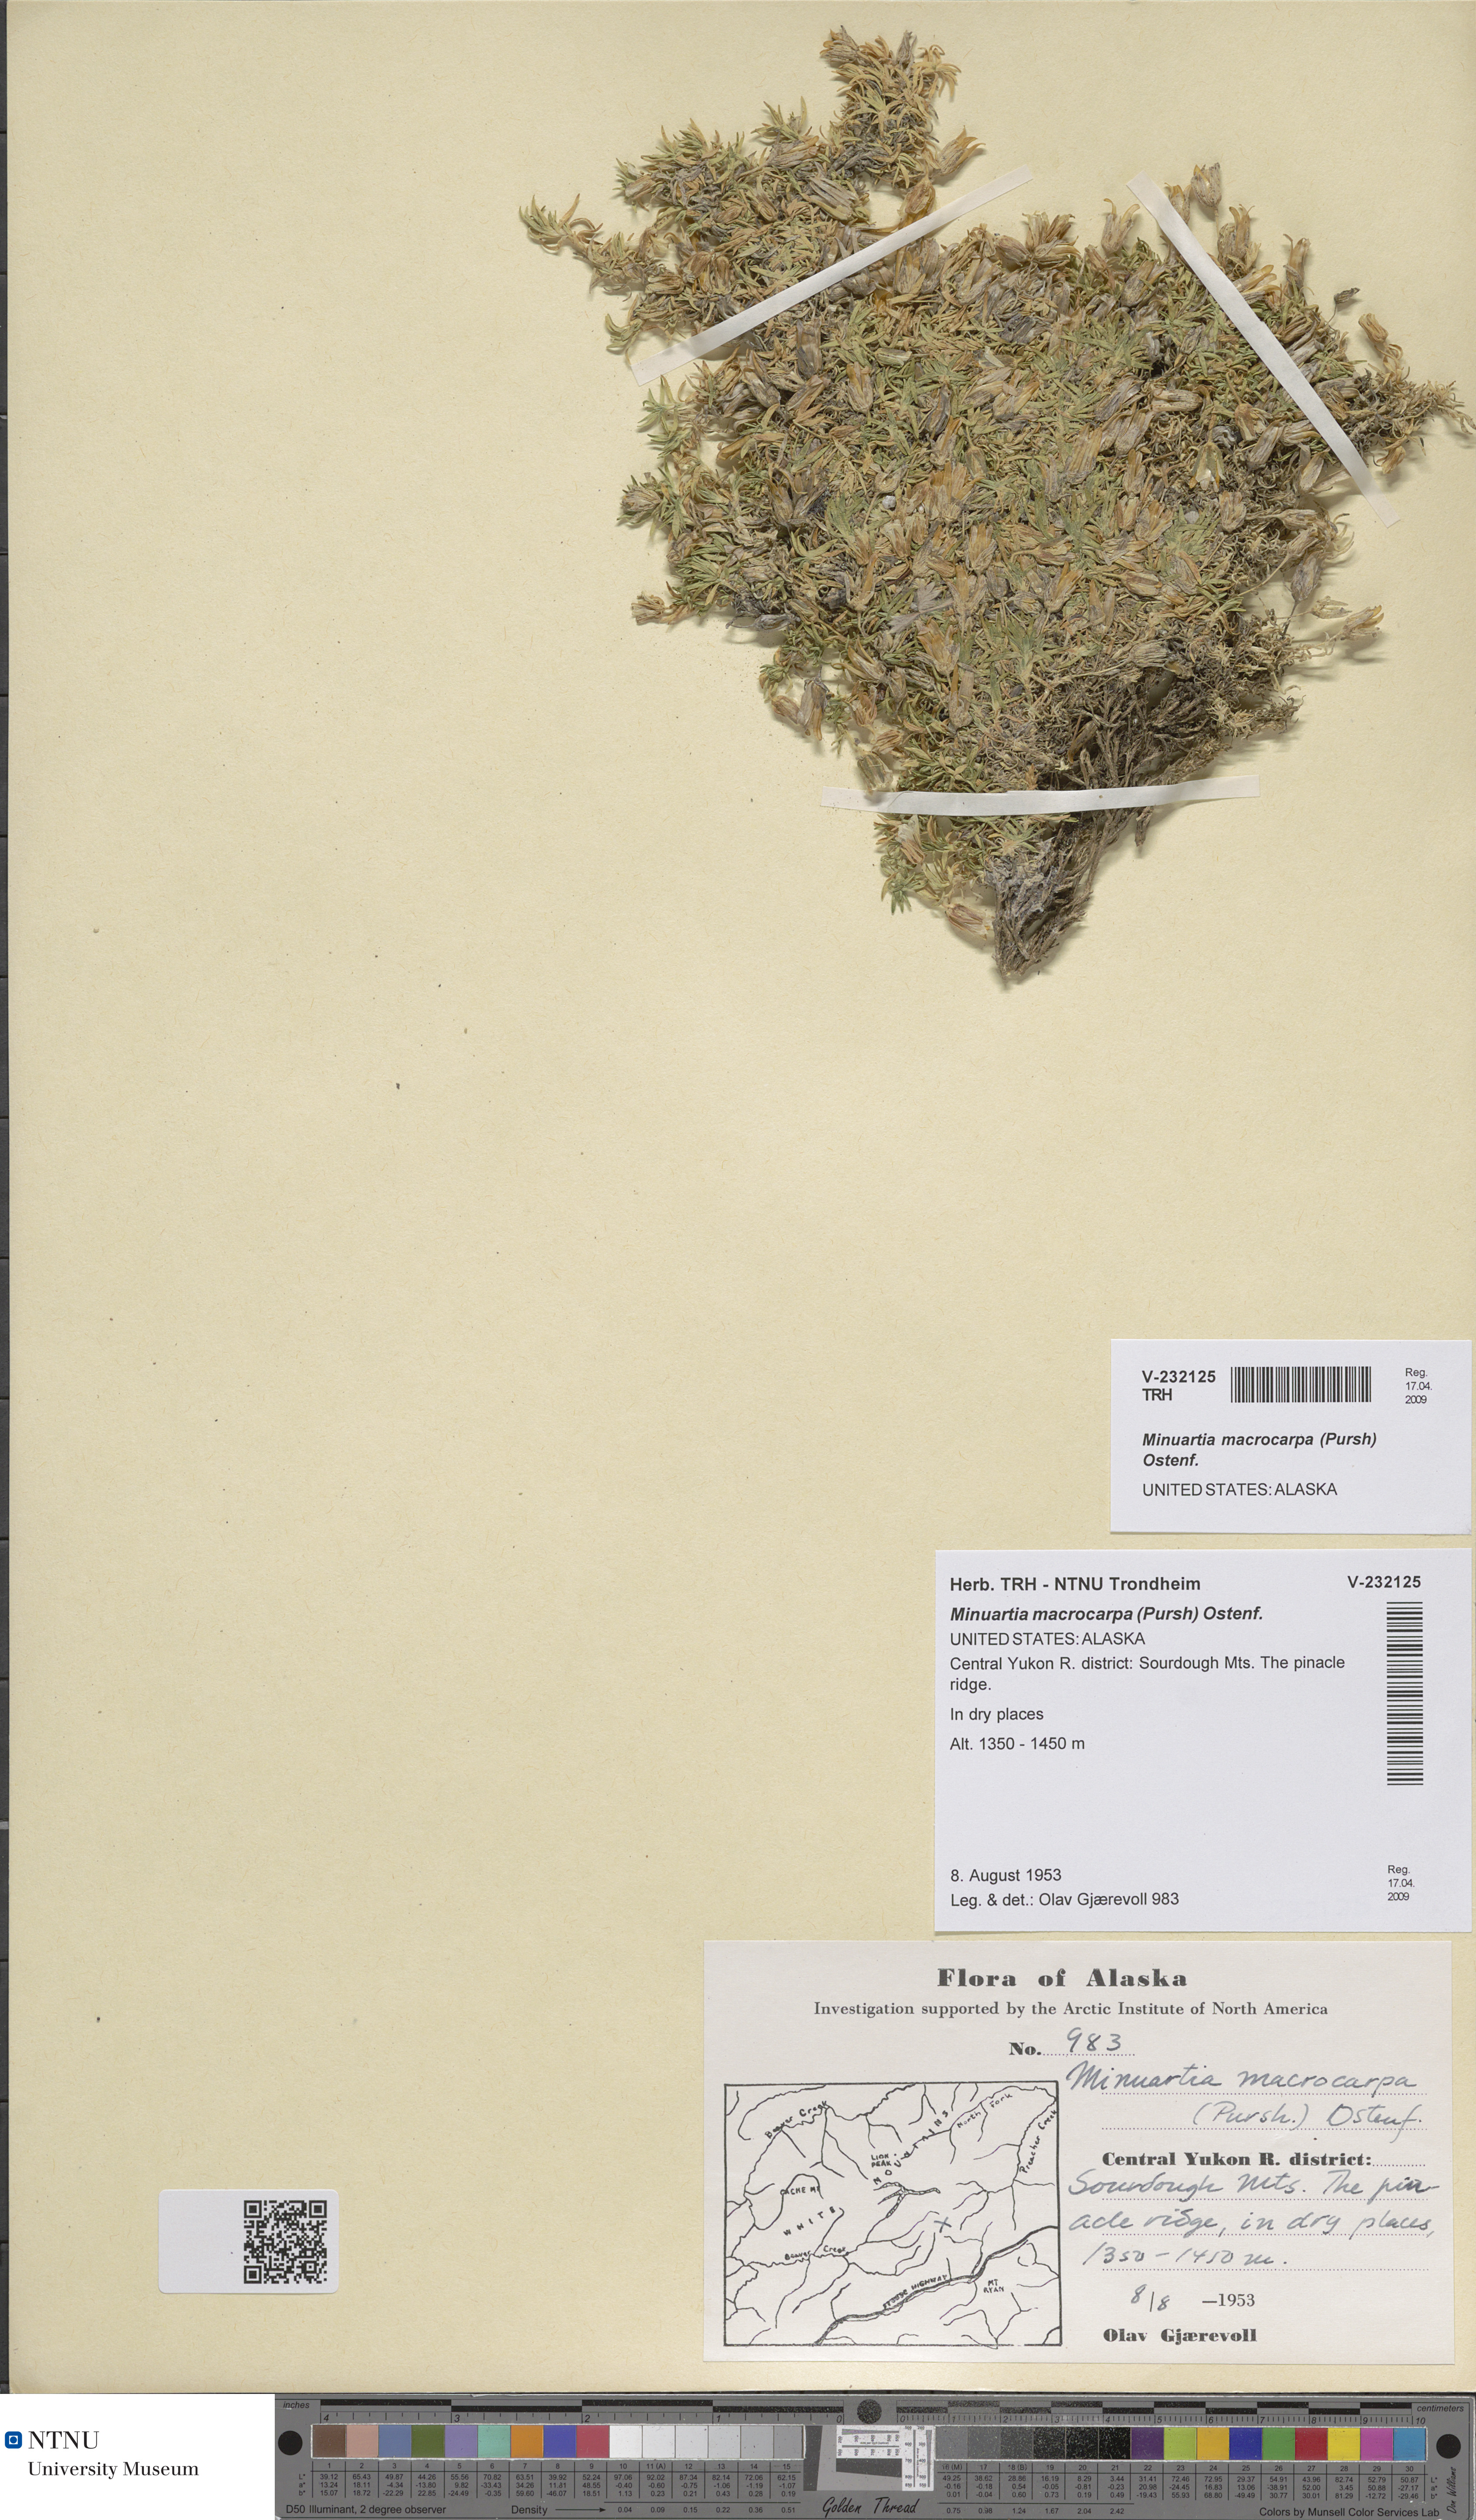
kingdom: Plantae
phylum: Tracheophyta
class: Magnoliopsida
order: Caryophyllales
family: Caryophyllaceae
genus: Pseudocherleria
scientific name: Pseudocherleria macrocarpa
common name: Large-fruit sandwort
